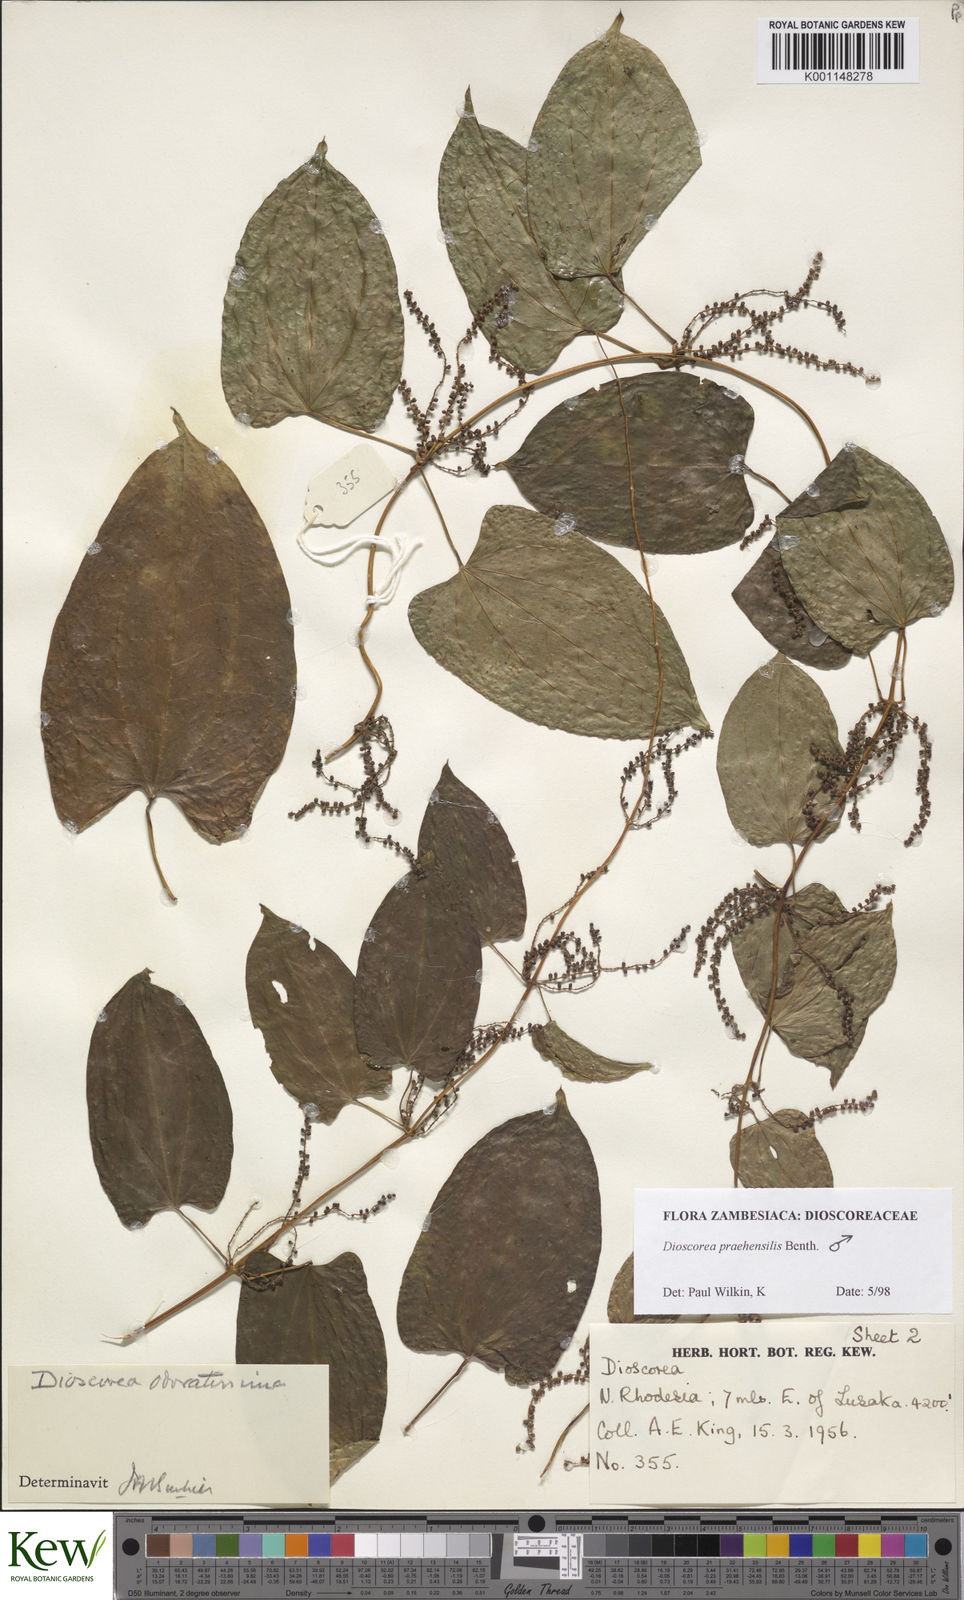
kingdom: Plantae
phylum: Tracheophyta
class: Liliopsida
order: Dioscoreales
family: Dioscoreaceae
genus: Dioscorea
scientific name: Dioscorea praehensilis
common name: Bush yam
